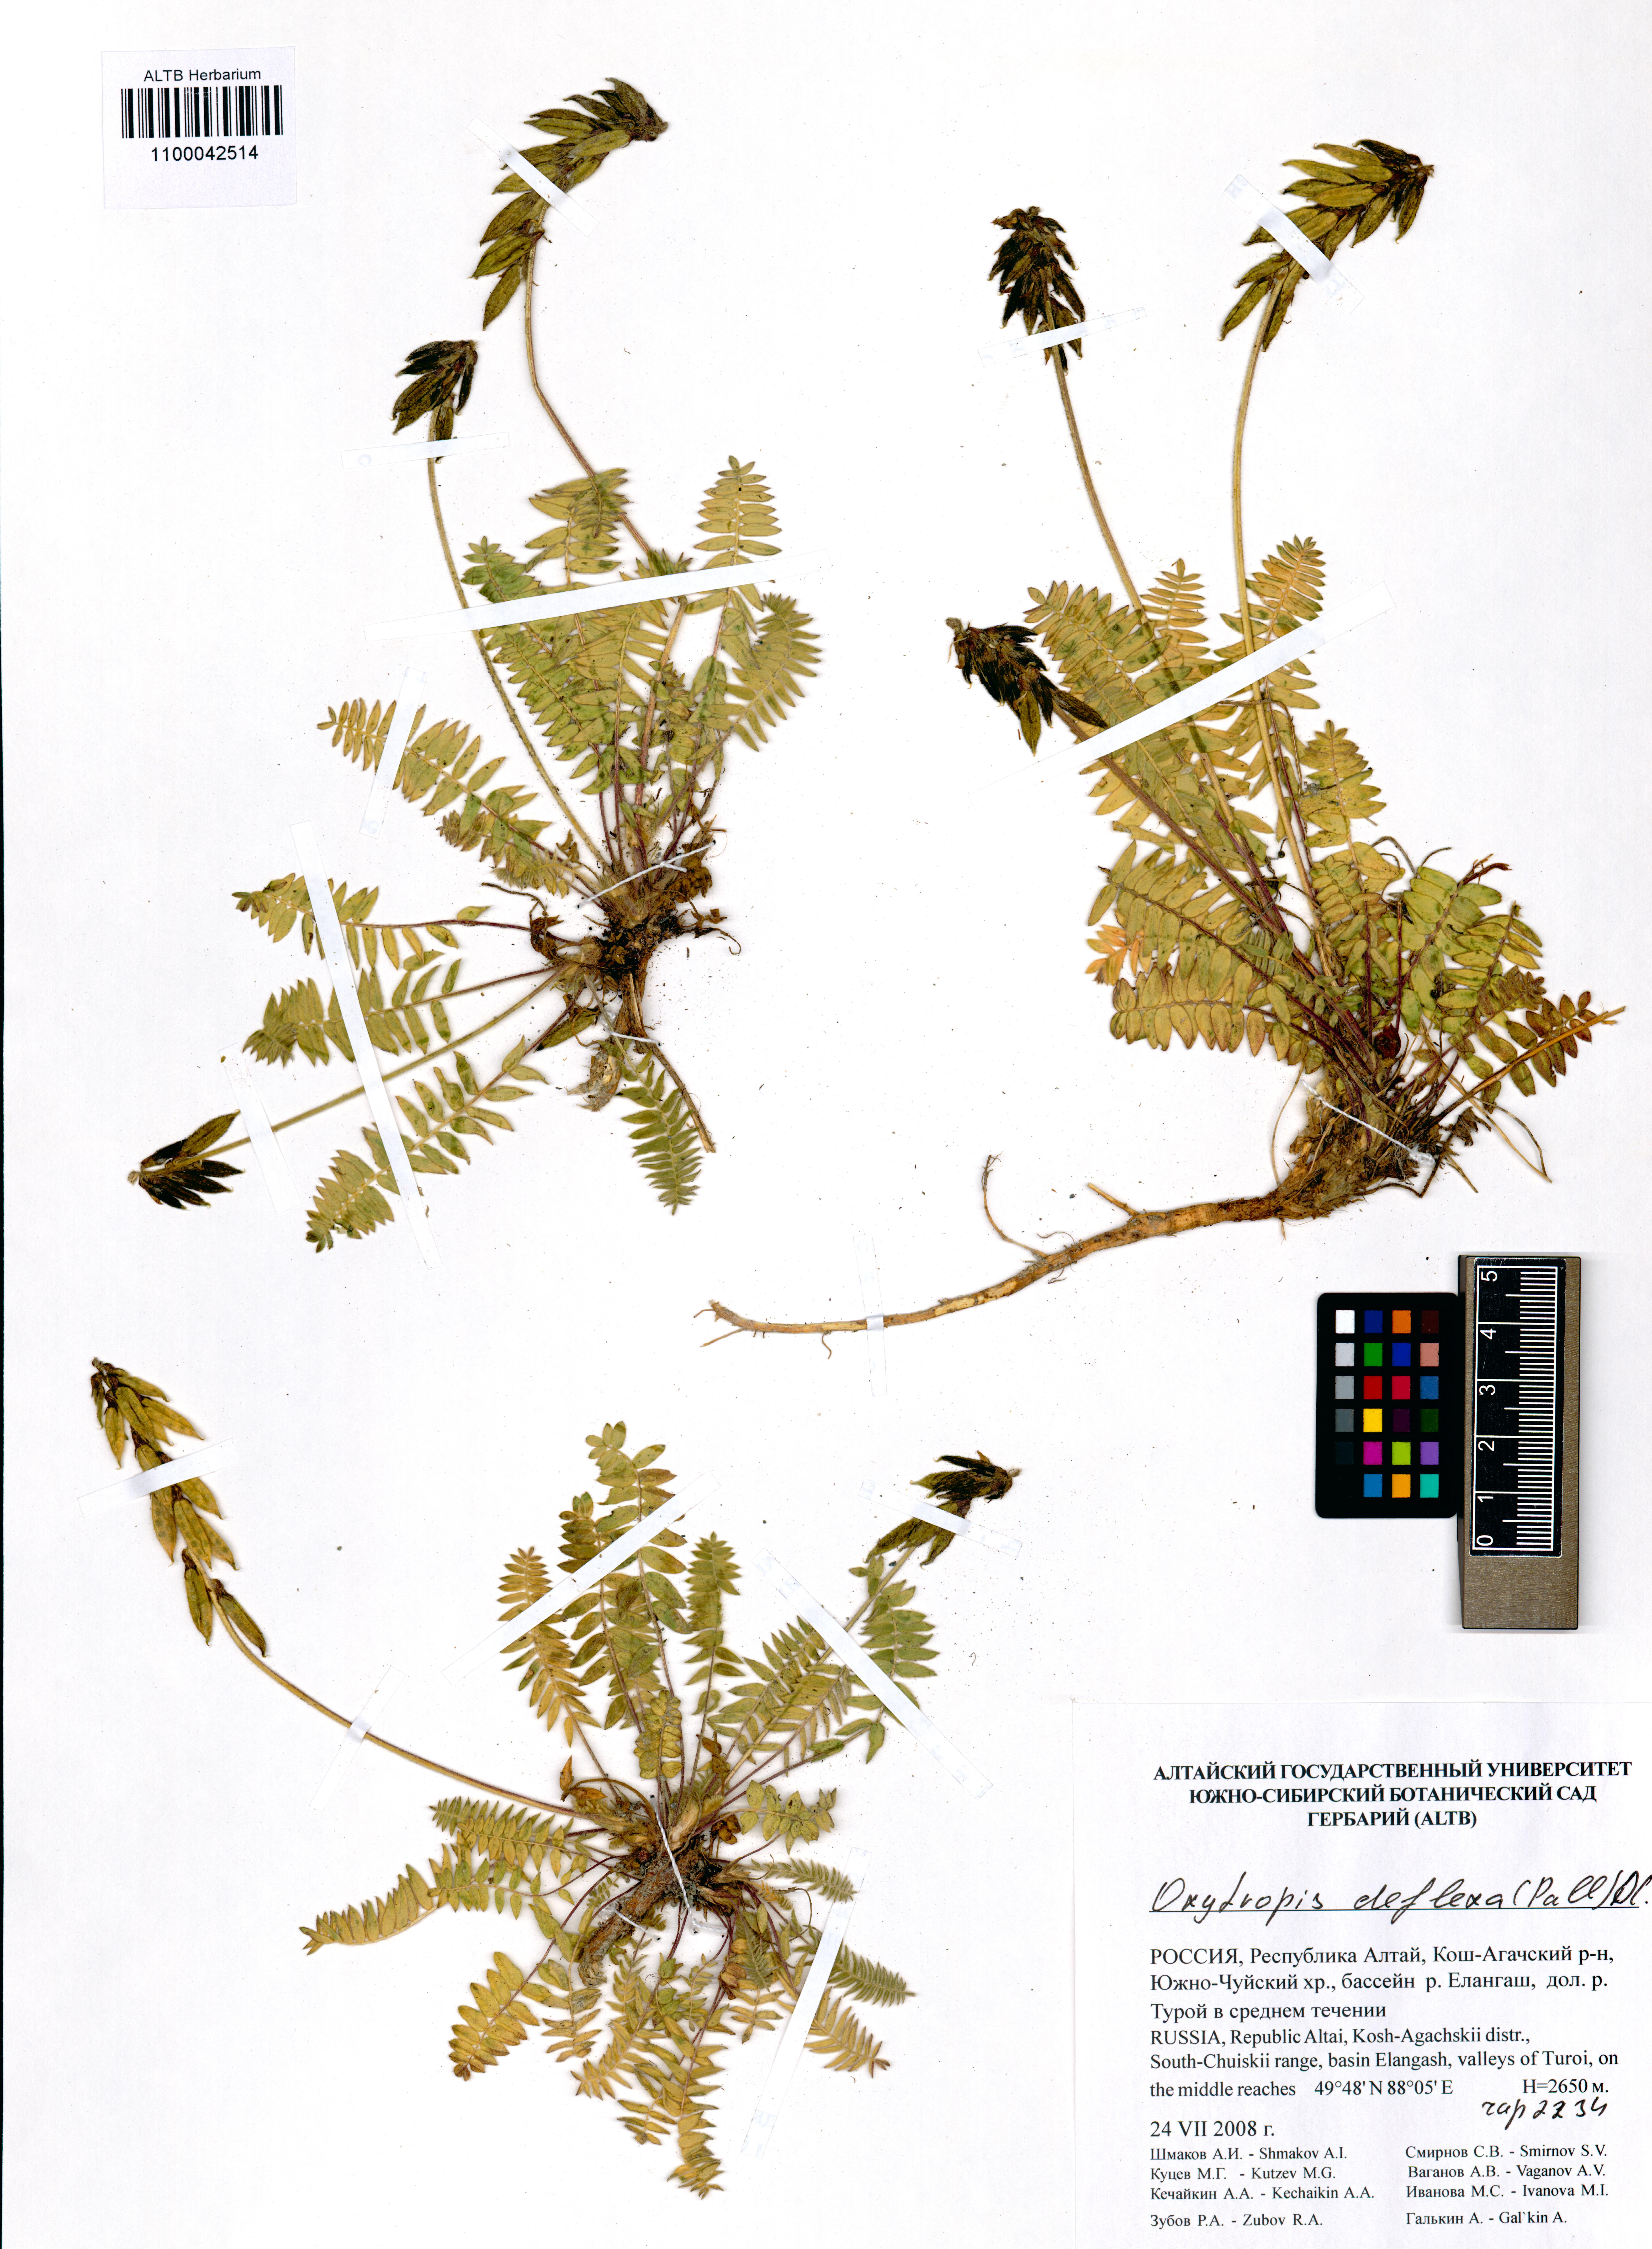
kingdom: Plantae
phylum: Tracheophyta
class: Magnoliopsida
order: Fabales
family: Fabaceae
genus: Oxytropis
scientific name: Oxytropis deflexa
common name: Stemmed oxytrope
